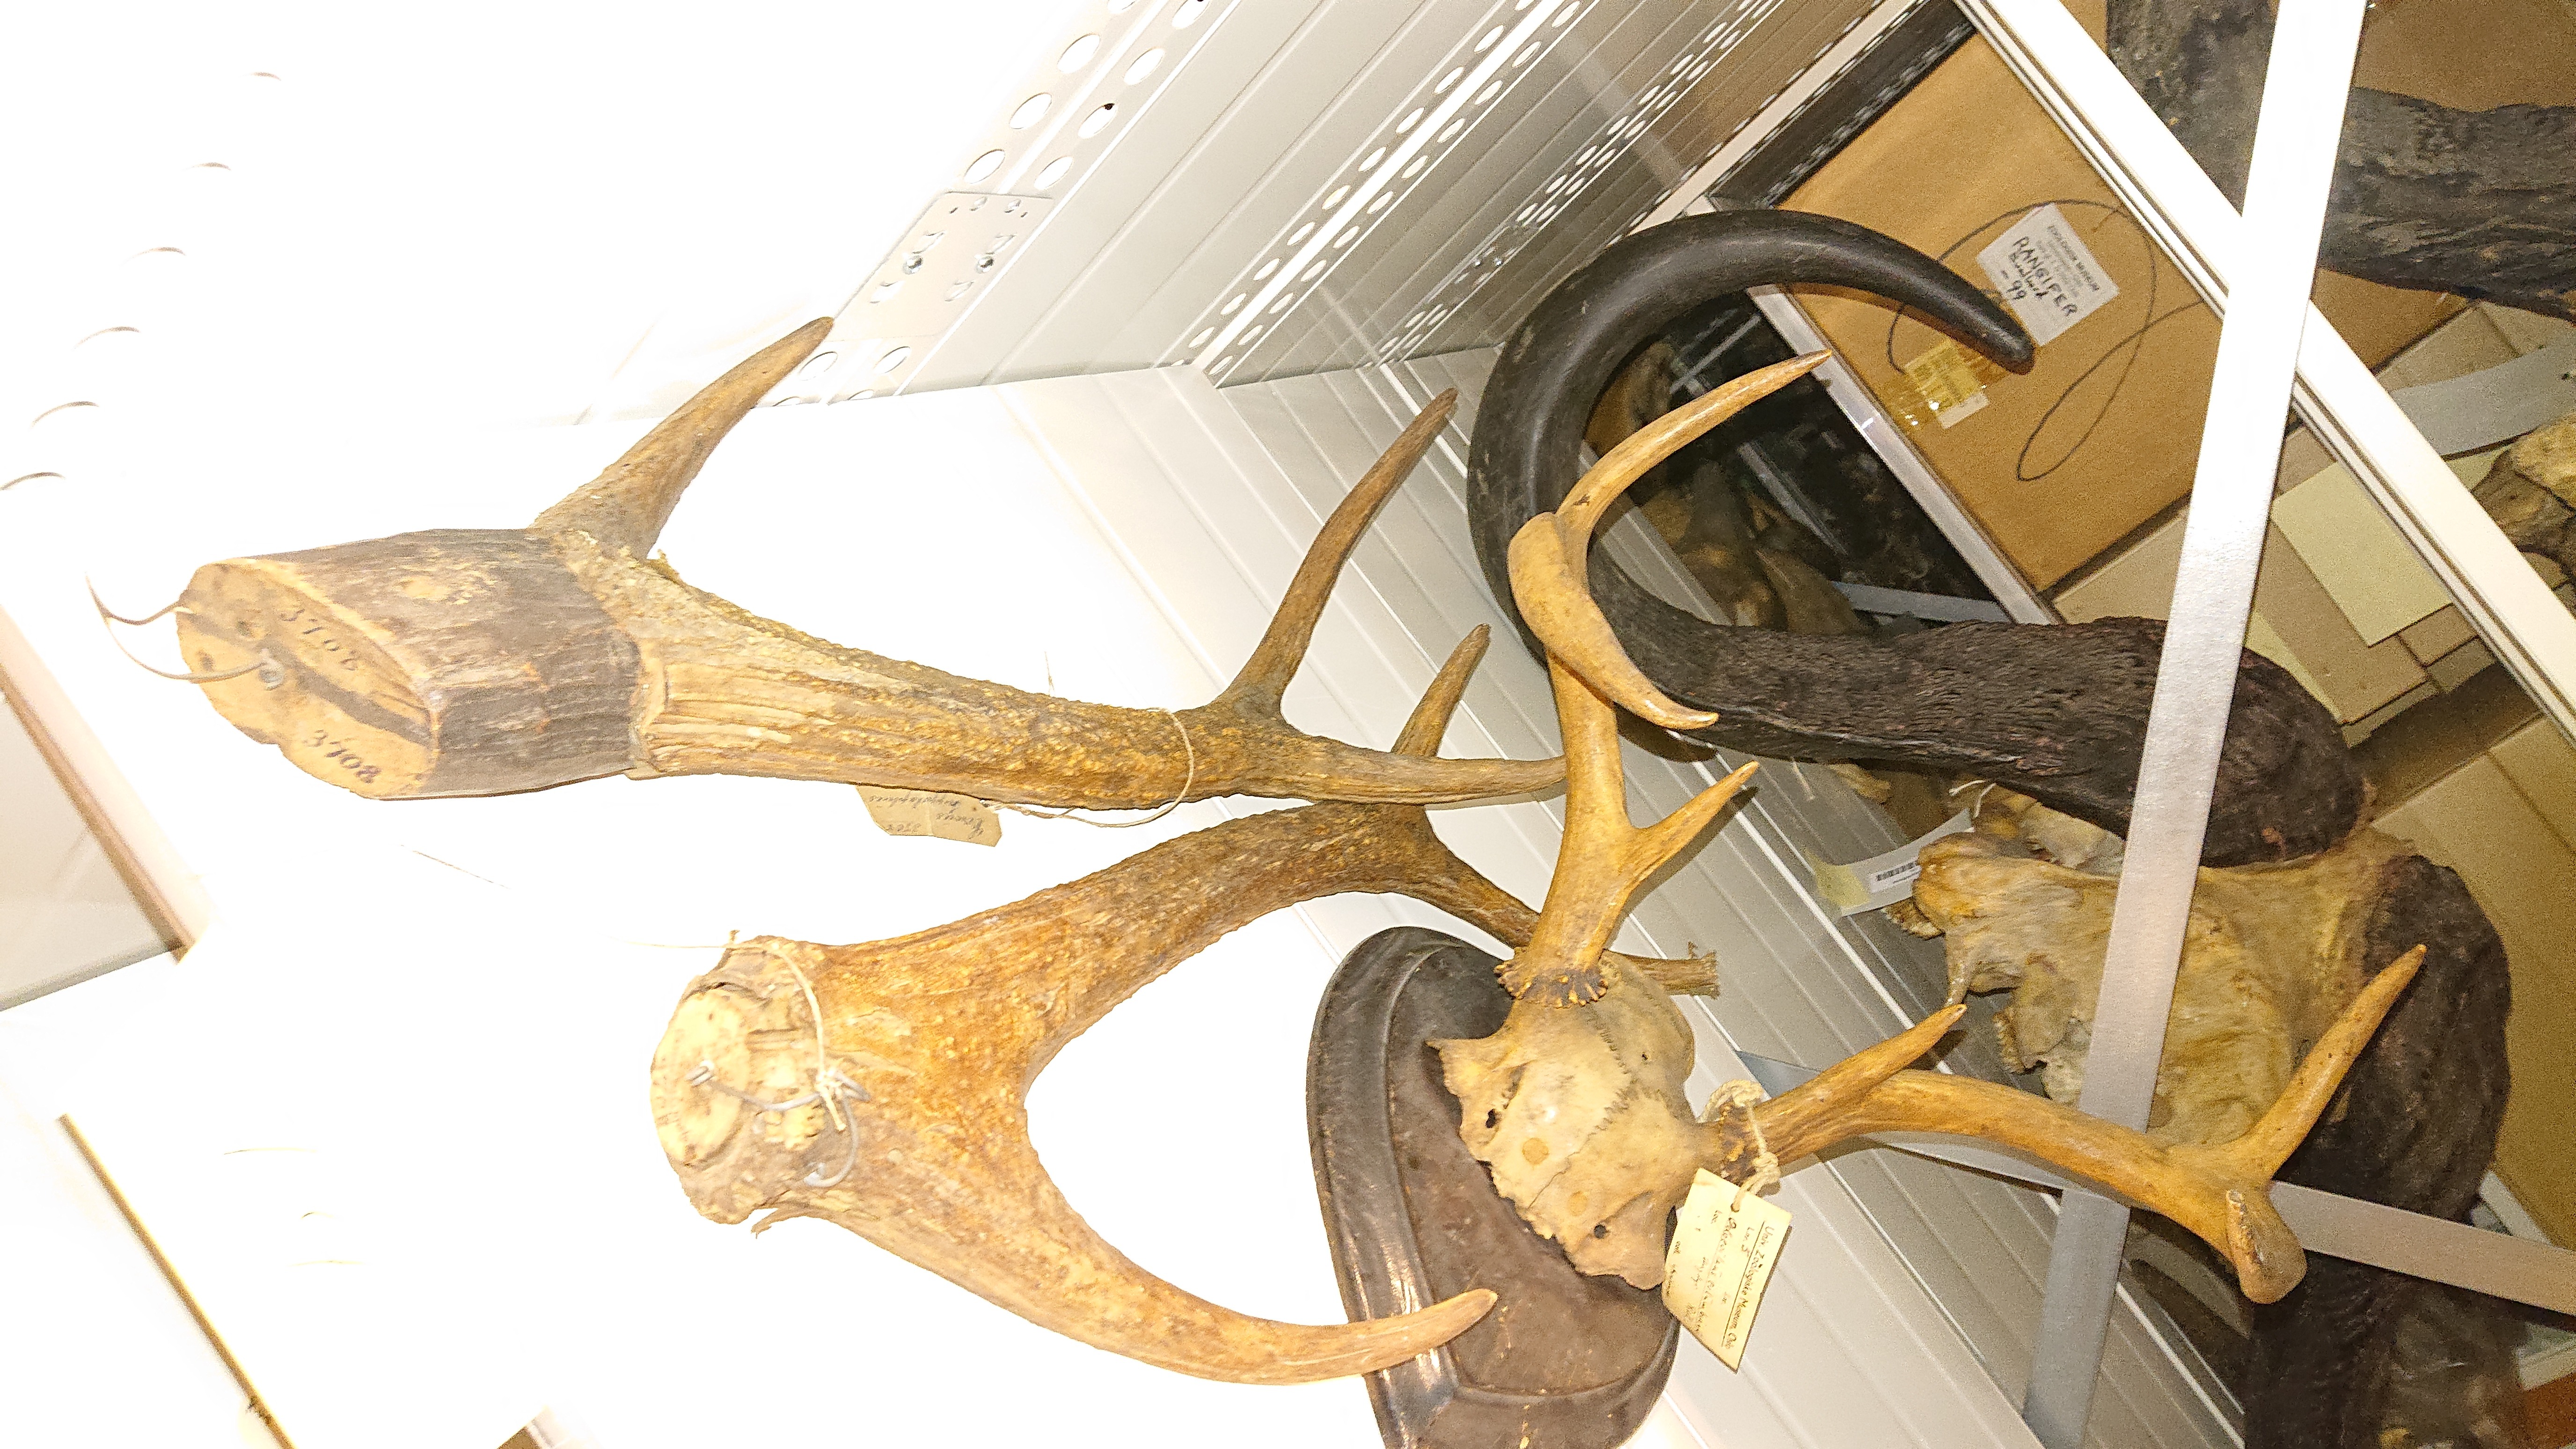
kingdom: Animalia
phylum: Chordata
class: Mammalia
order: Artiodactyla
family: Cervidae
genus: Cervus
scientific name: Cervus elaphus
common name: Red deer
